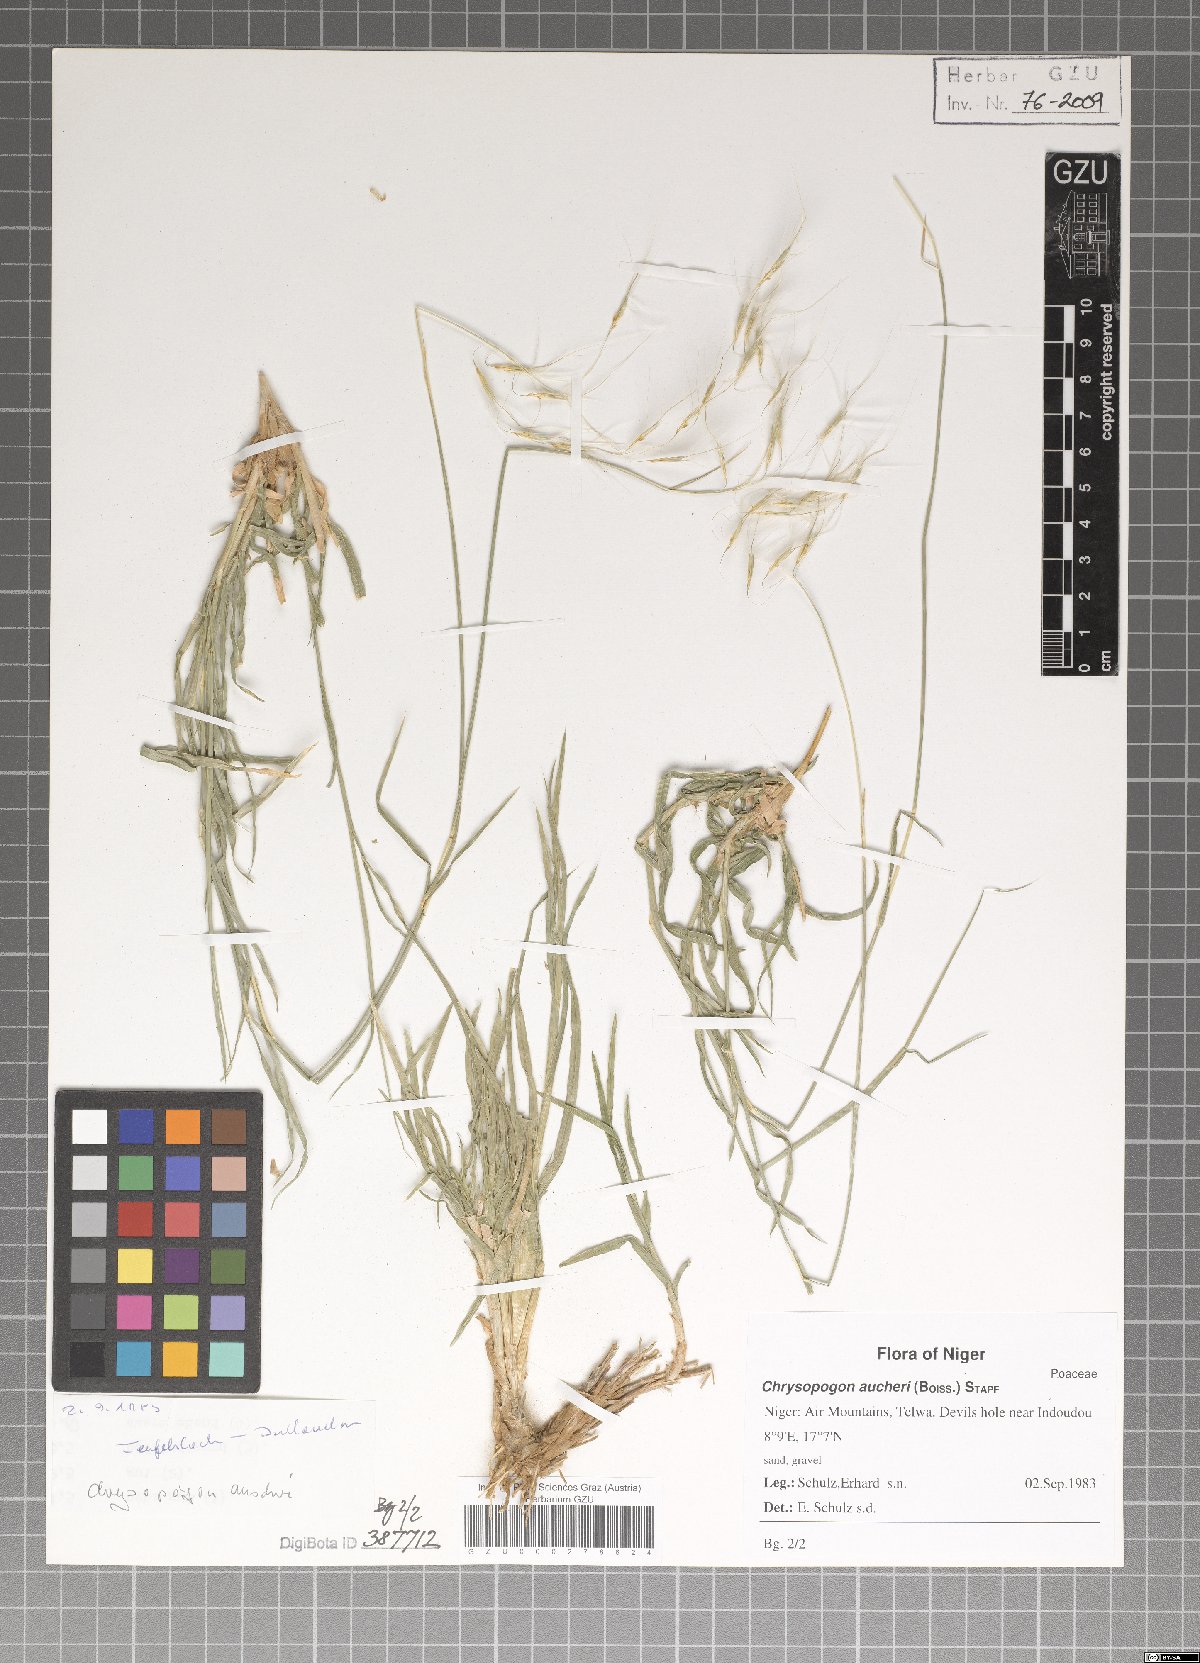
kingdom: Plantae
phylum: Tracheophyta
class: Liliopsida
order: Poales
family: Poaceae
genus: Chrysopogon
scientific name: Chrysopogon aucheri
